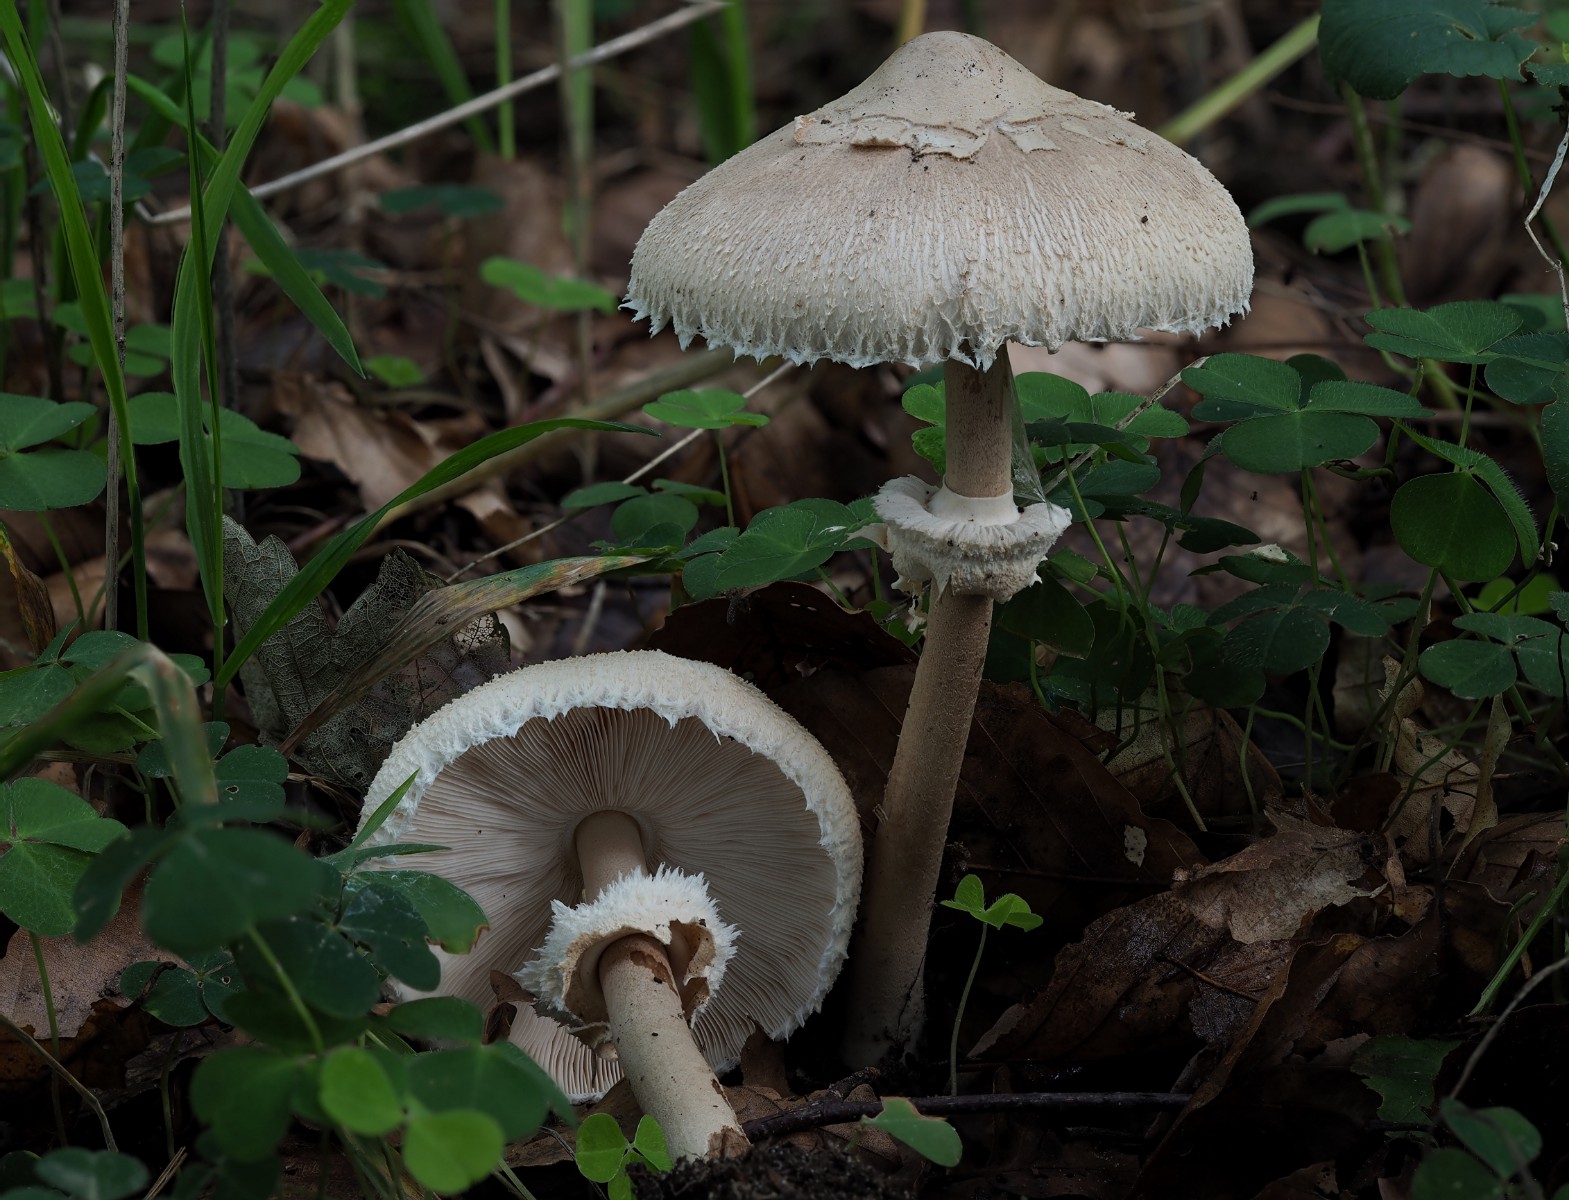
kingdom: Fungi
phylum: Basidiomycota
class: Agaricomycetes
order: Agaricales
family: Agaricaceae
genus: Macrolepiota
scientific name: Macrolepiota mastoidea
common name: puklet kæmpeparasolhat
